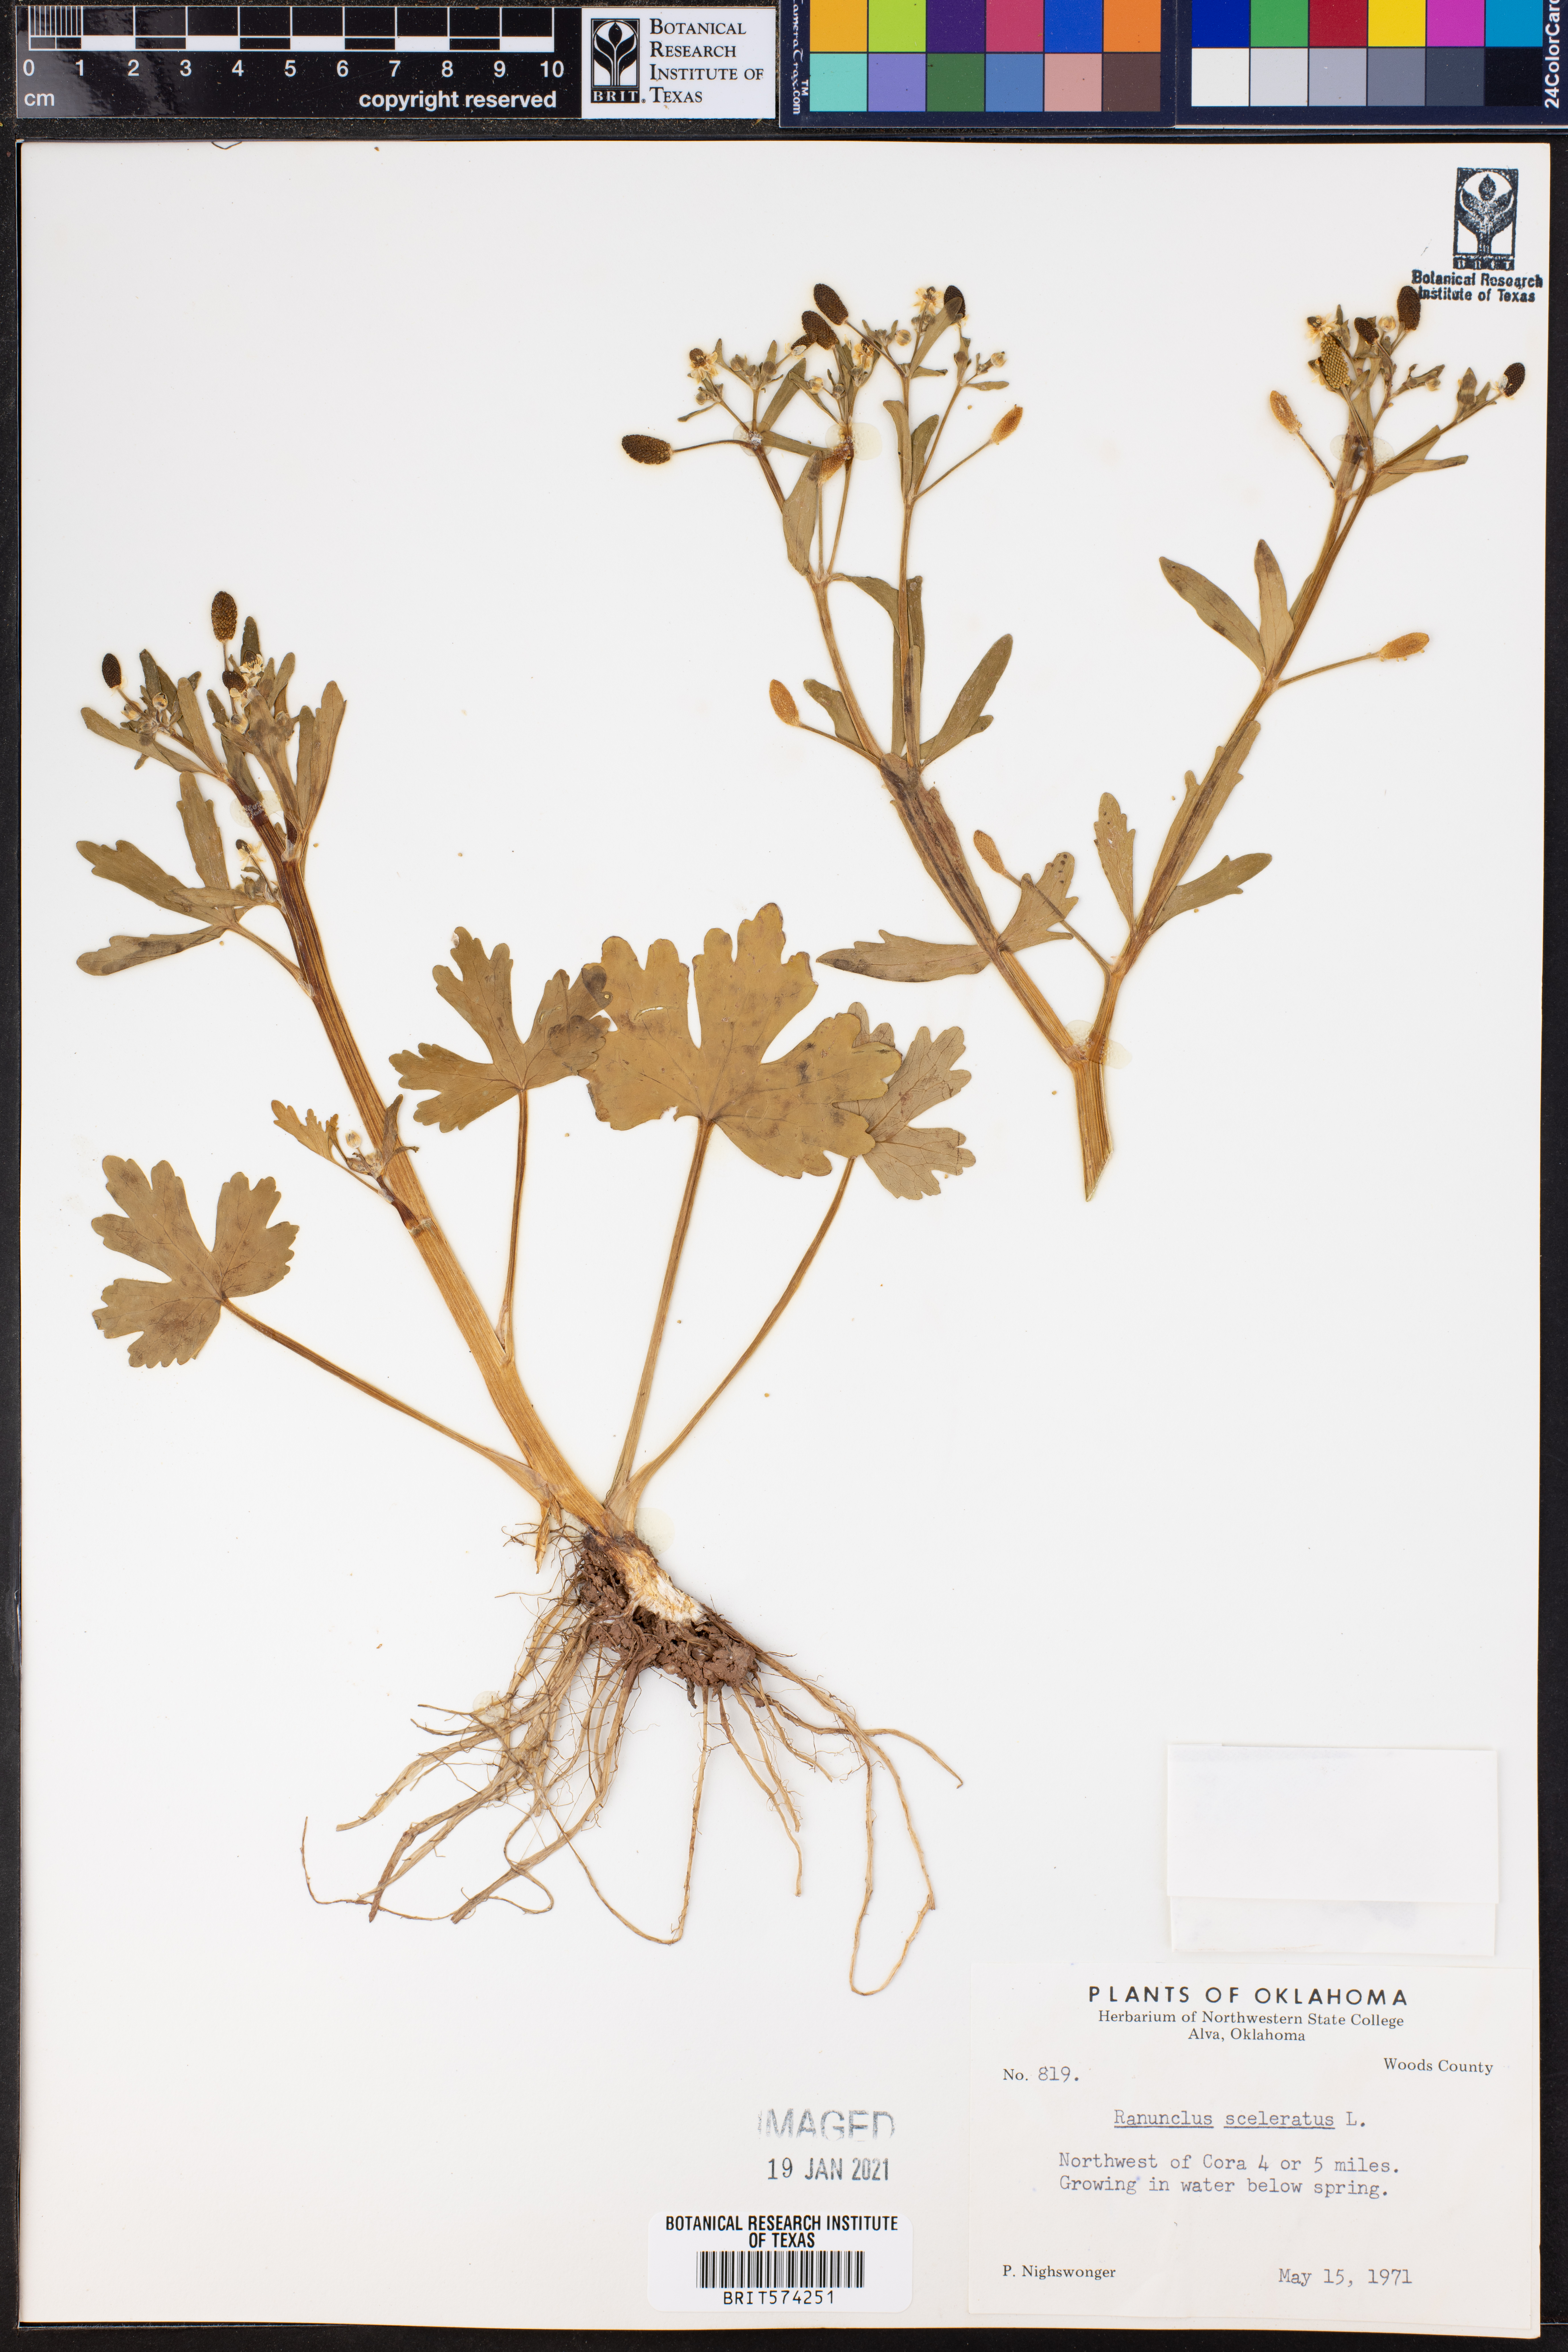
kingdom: Plantae
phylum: Tracheophyta
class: Magnoliopsida
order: Ranunculales
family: Ranunculaceae
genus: Ranunculus
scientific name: Ranunculus sceleratus
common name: Celery-leaved buttercup
